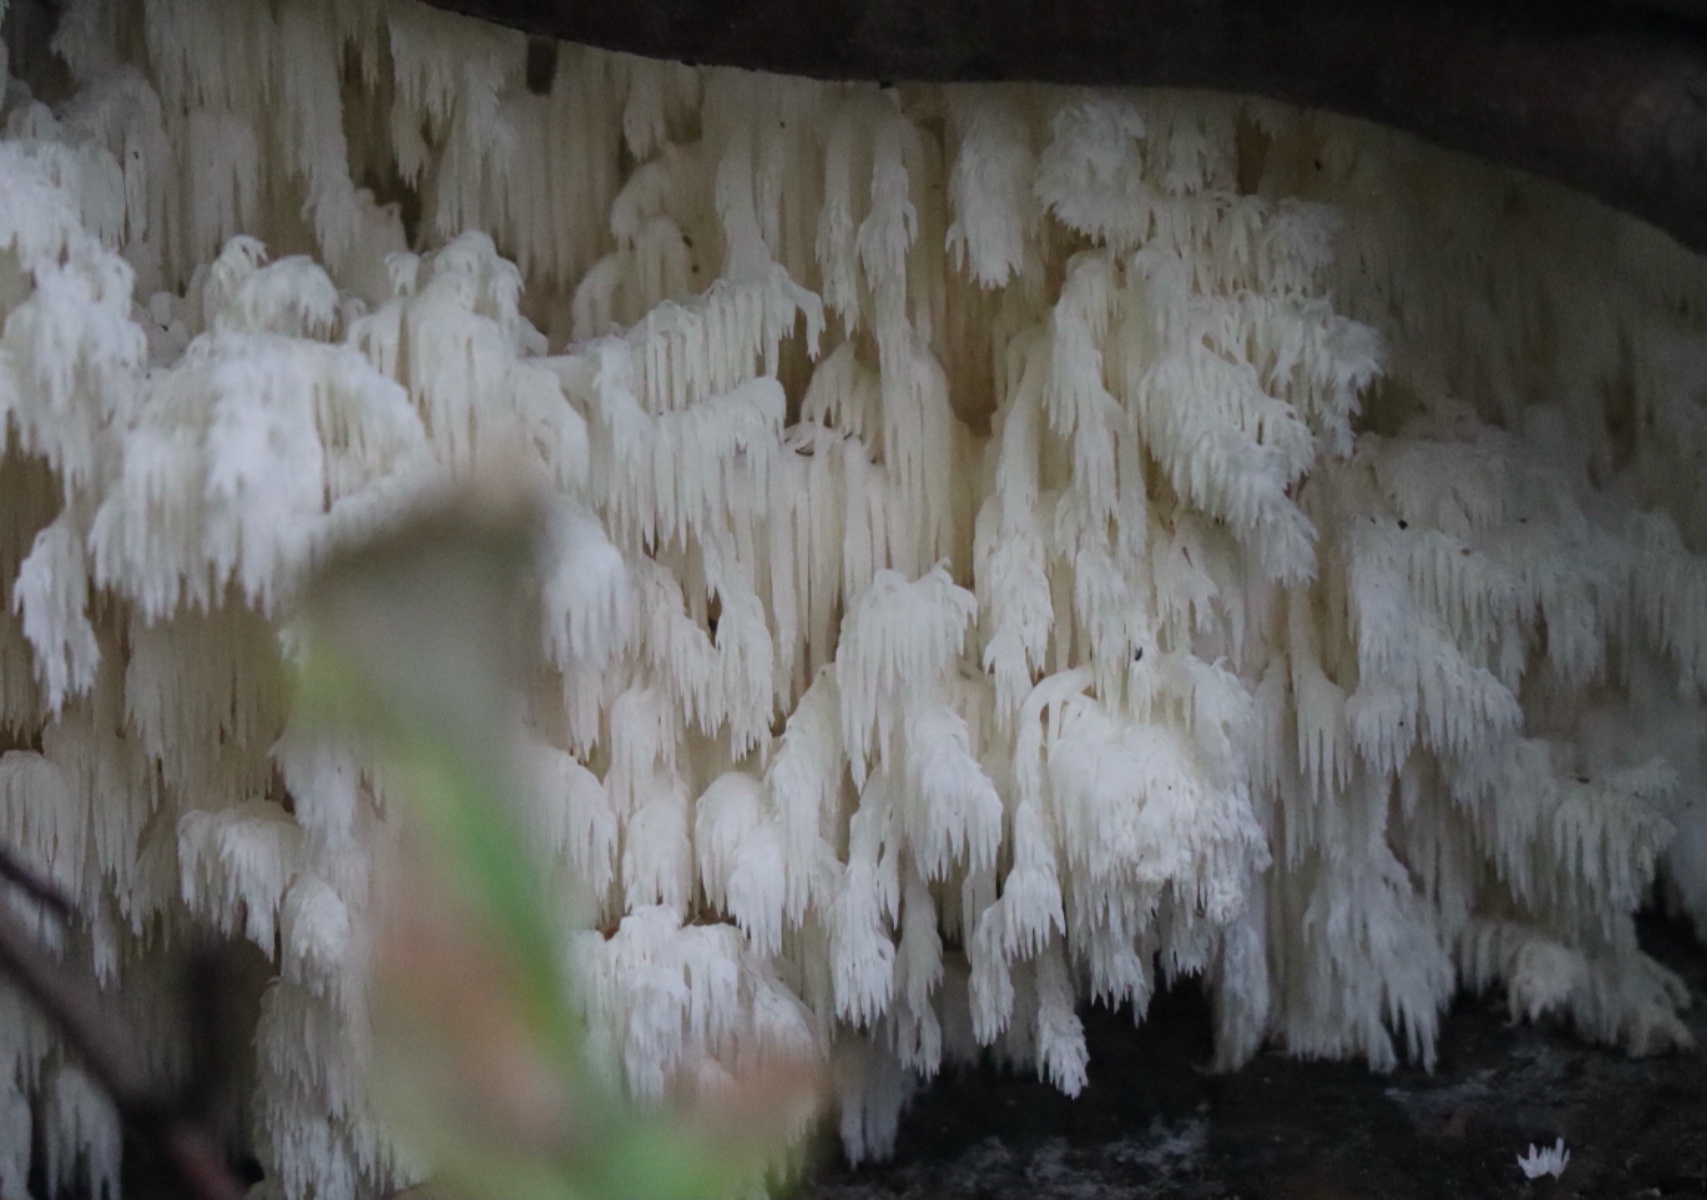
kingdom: Fungi
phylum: Basidiomycota
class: Agaricomycetes
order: Russulales
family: Hericiaceae
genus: Hericium
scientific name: Hericium coralloides
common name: koralpigsvamp
